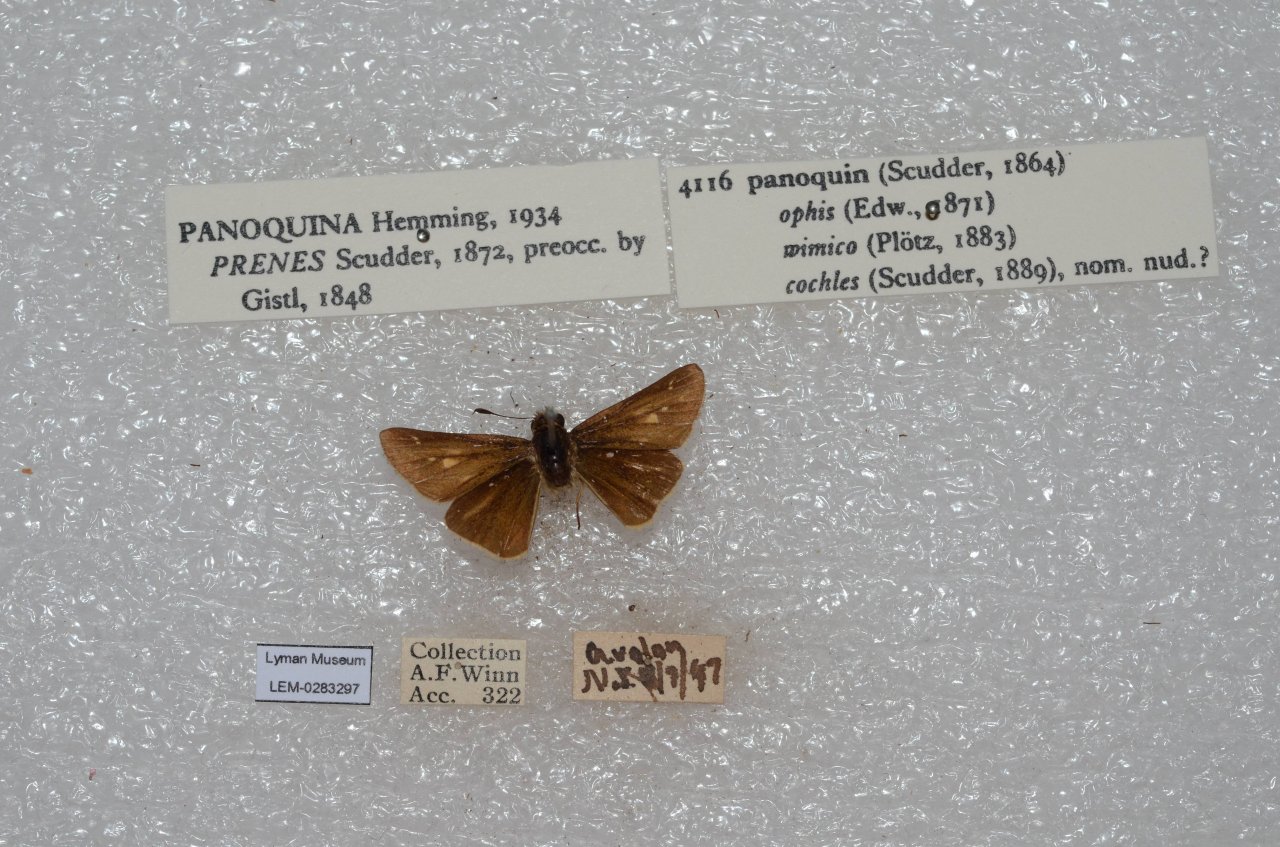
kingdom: Animalia
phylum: Arthropoda
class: Insecta
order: Lepidoptera
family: Hesperiidae
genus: Panoquina
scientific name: Panoquina panoquin
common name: Salt Marsh Skipper
